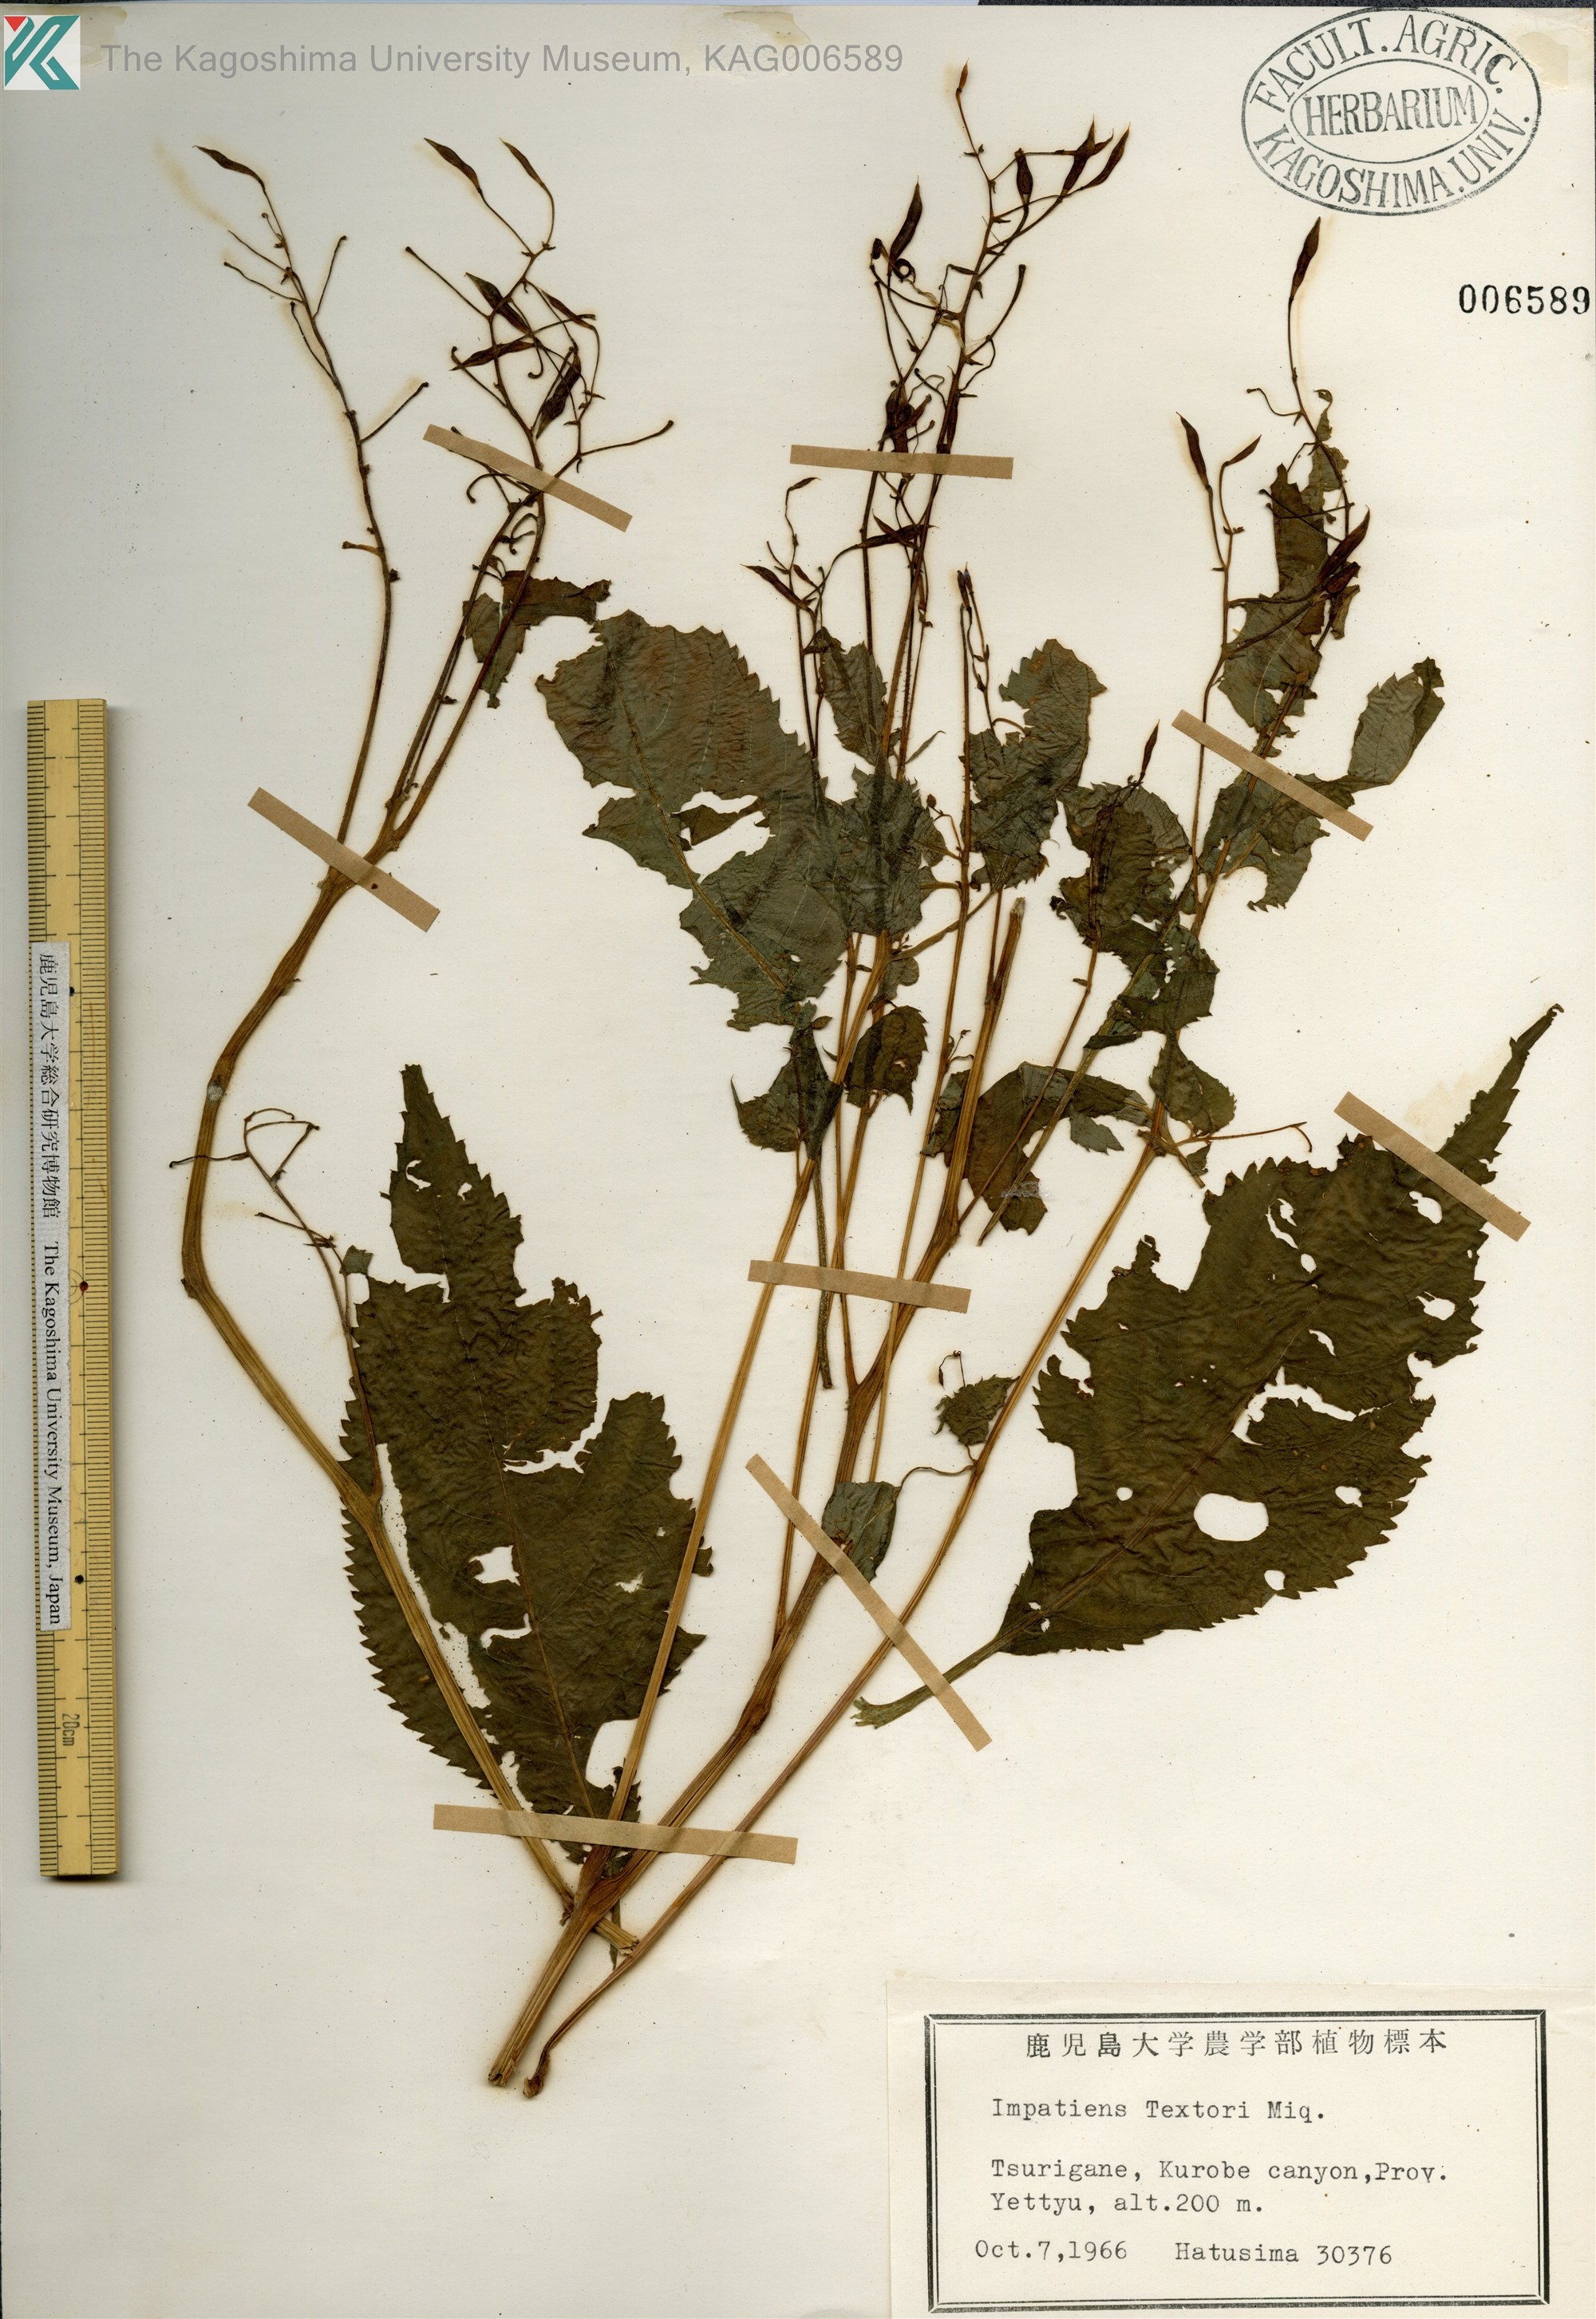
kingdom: Plantae
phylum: Tracheophyta
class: Magnoliopsida
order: Ericales
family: Balsaminaceae
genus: Impatiens
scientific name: Impatiens textorii
